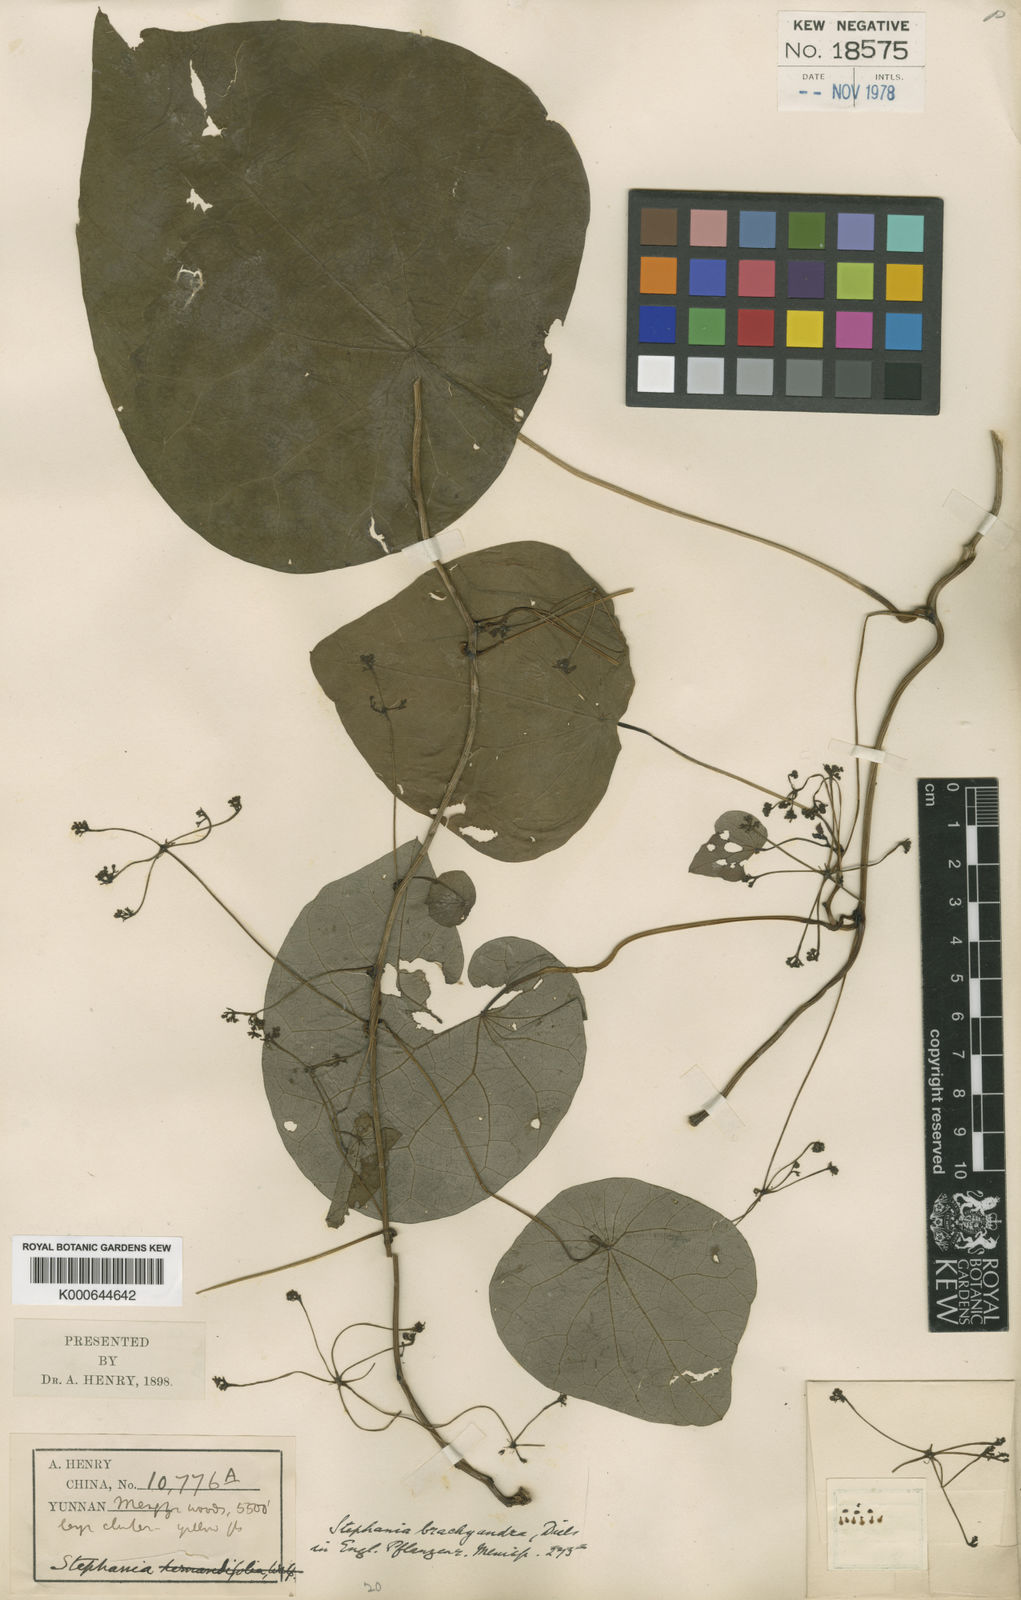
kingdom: Plantae
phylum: Tracheophyta
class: Magnoliopsida
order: Ranunculales
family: Menispermaceae
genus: Stephania
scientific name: Stephania brachyandra
